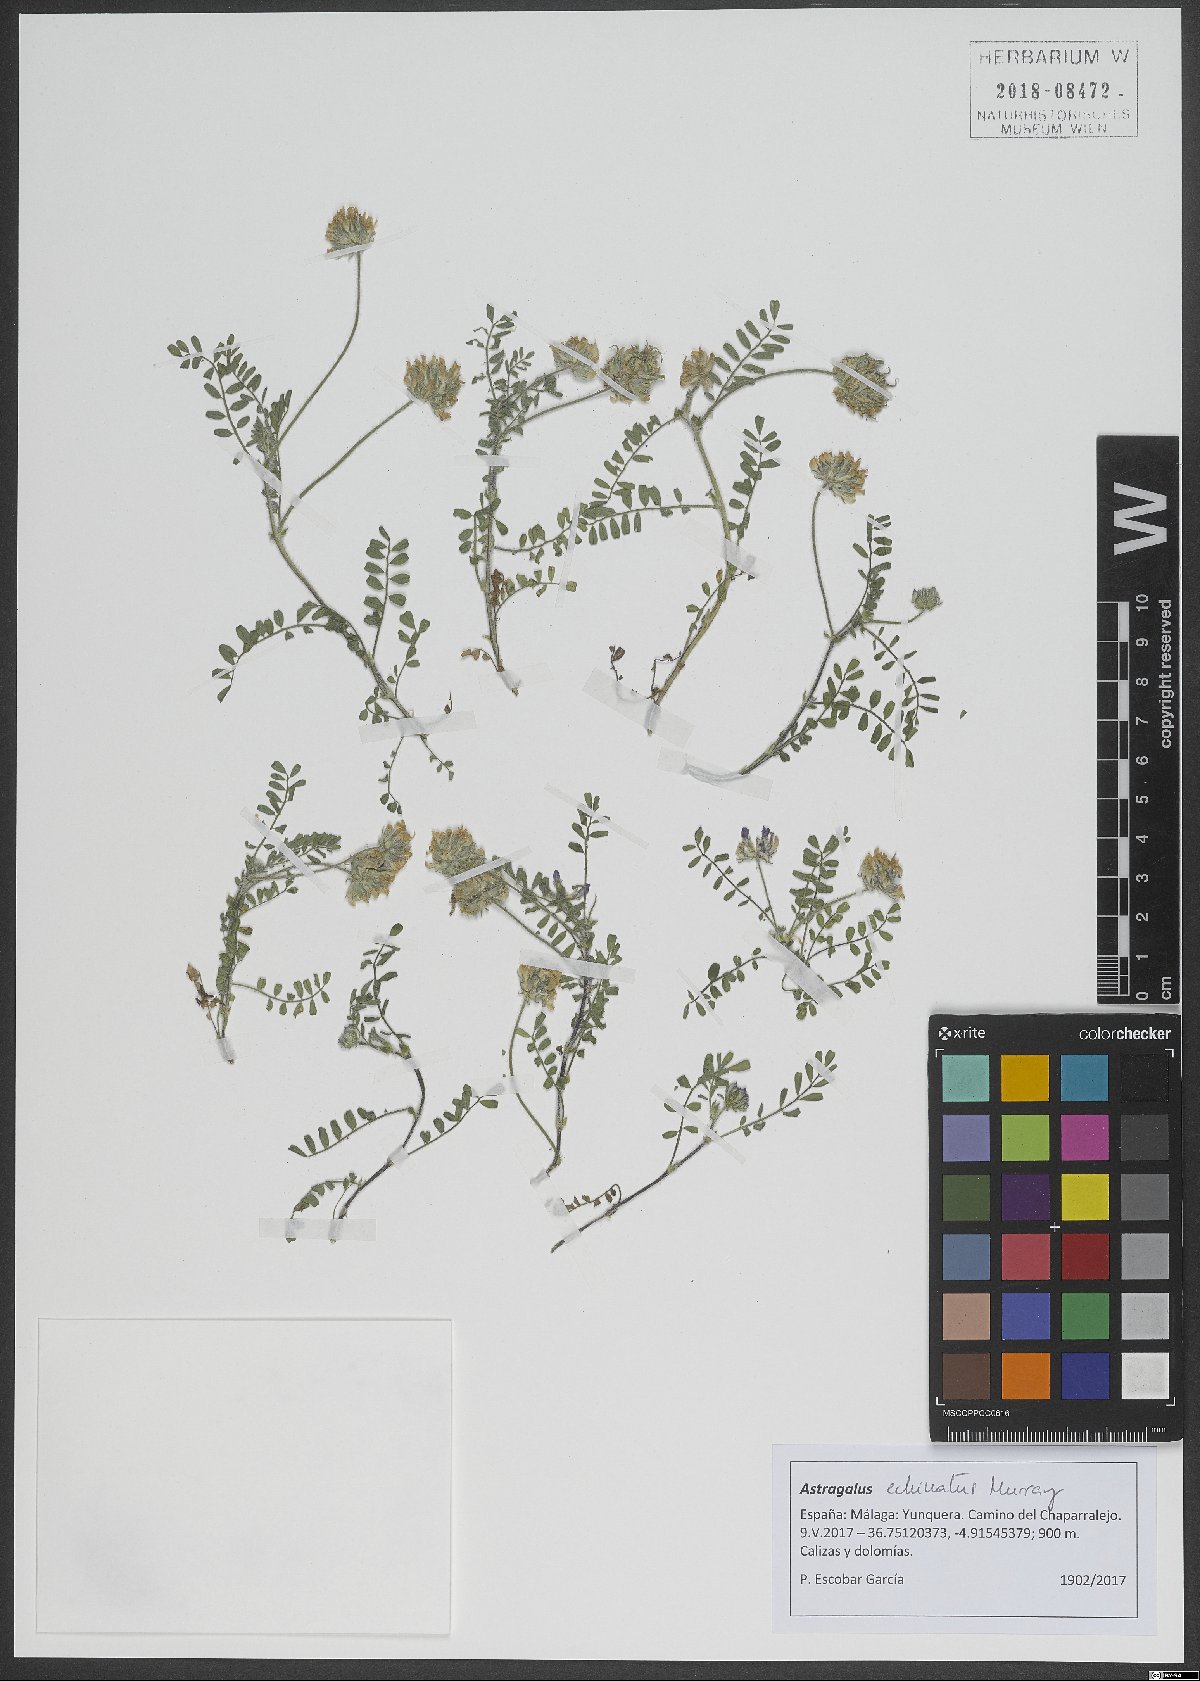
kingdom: Plantae
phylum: Tracheophyta
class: Magnoliopsida
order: Fabales
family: Fabaceae
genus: Astragalus
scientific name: Astragalus echinatus
